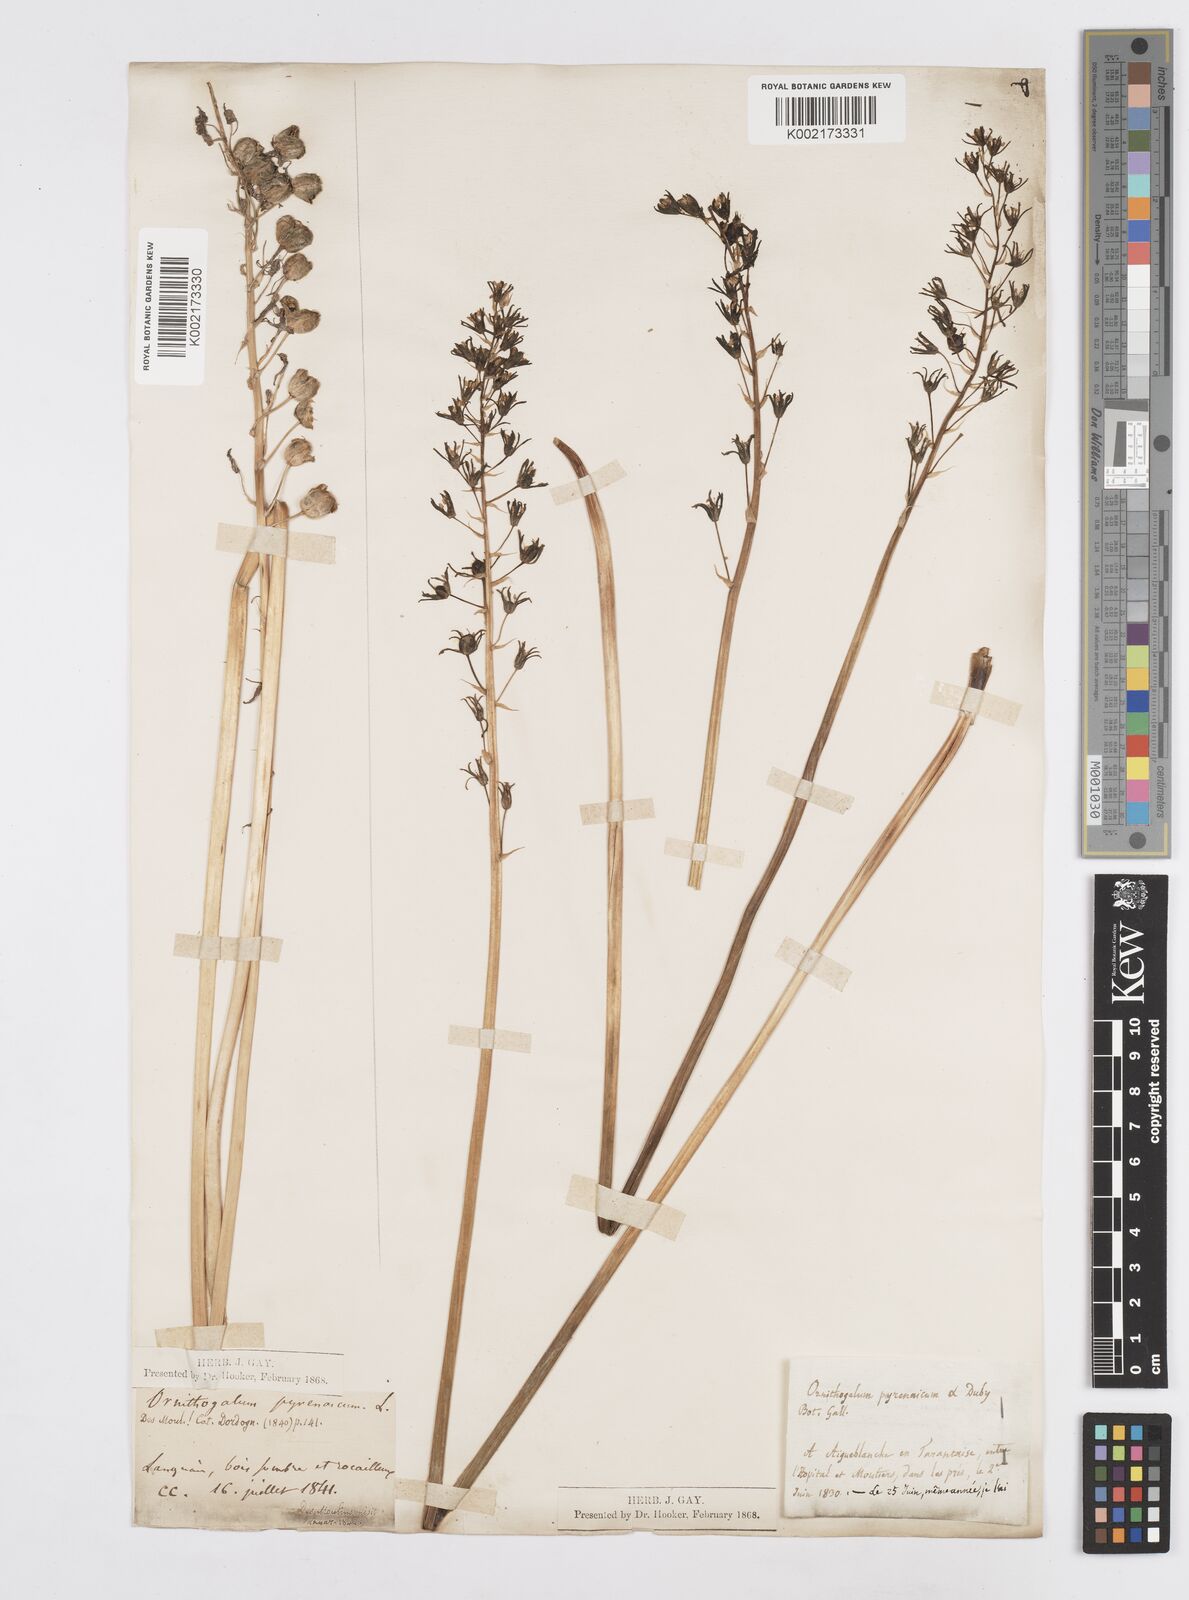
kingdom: Plantae
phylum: Tracheophyta
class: Liliopsida
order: Asparagales
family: Asparagaceae
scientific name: Asparagaceae
